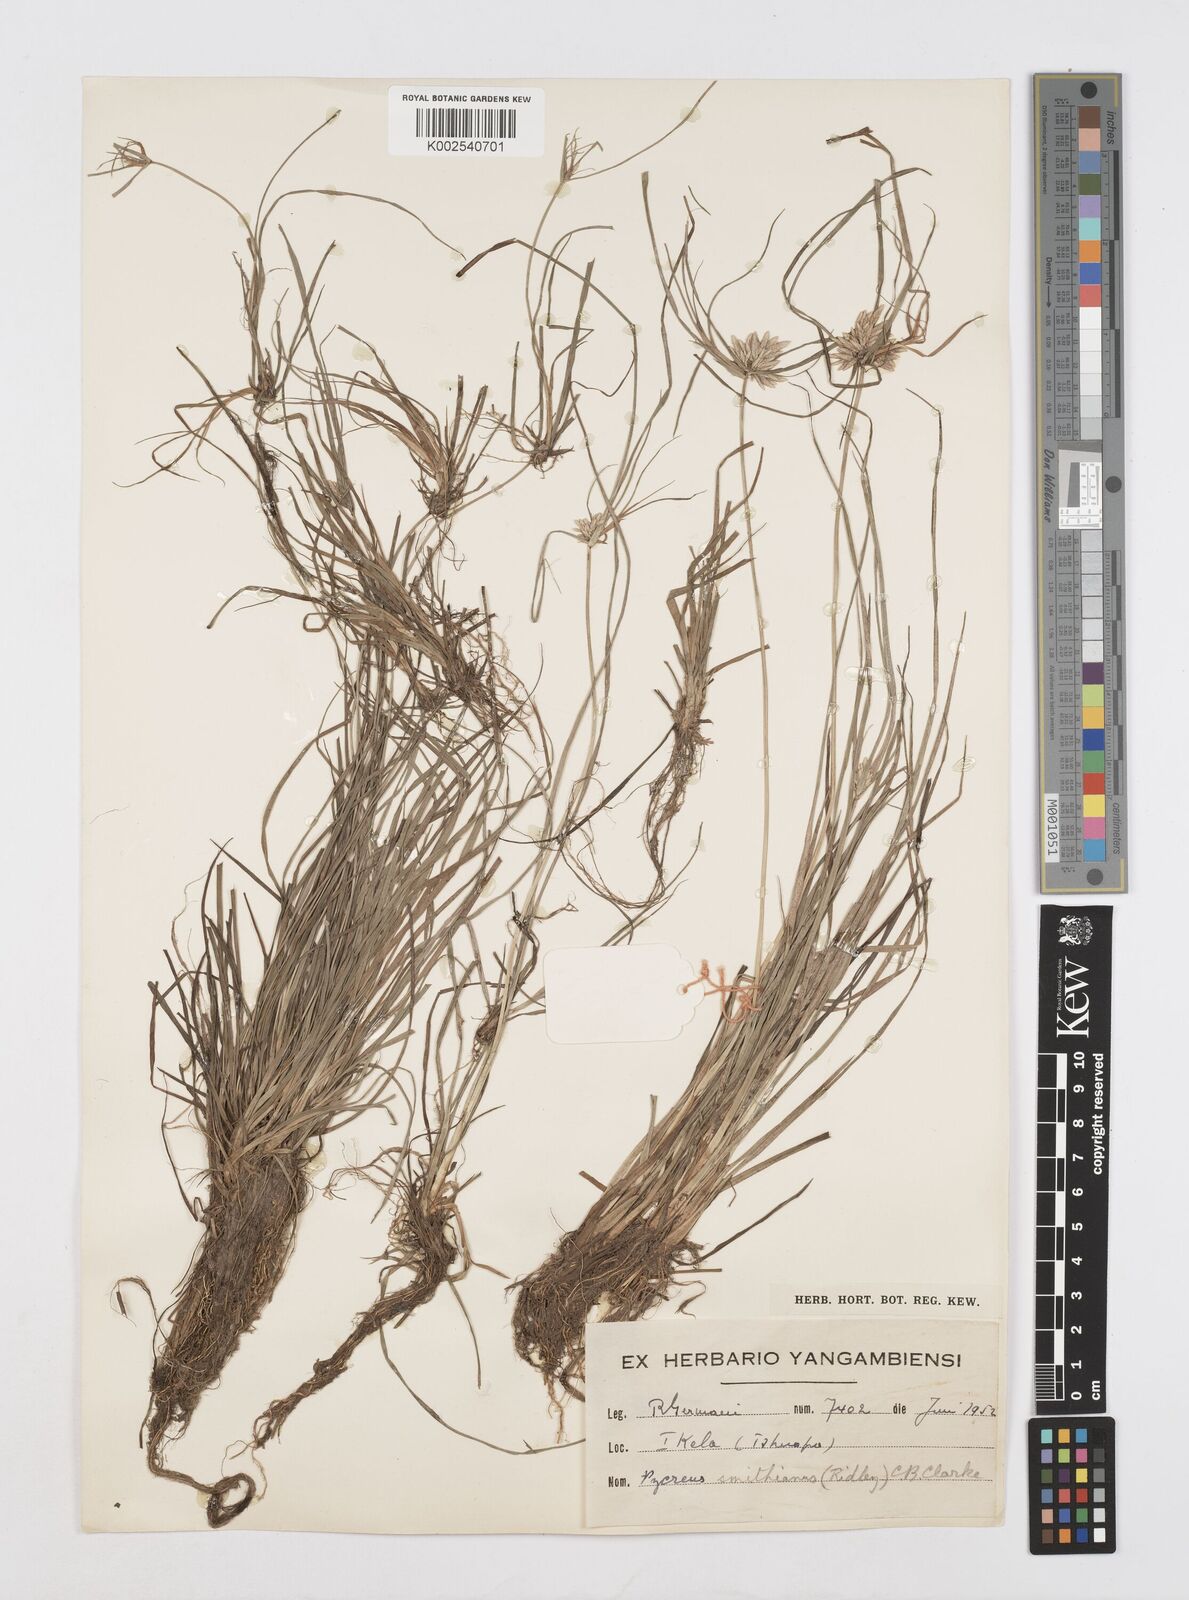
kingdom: Plantae
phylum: Tracheophyta
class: Liliopsida
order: Poales
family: Cyperaceae
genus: Cyperus
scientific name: Cyperus smithianus
